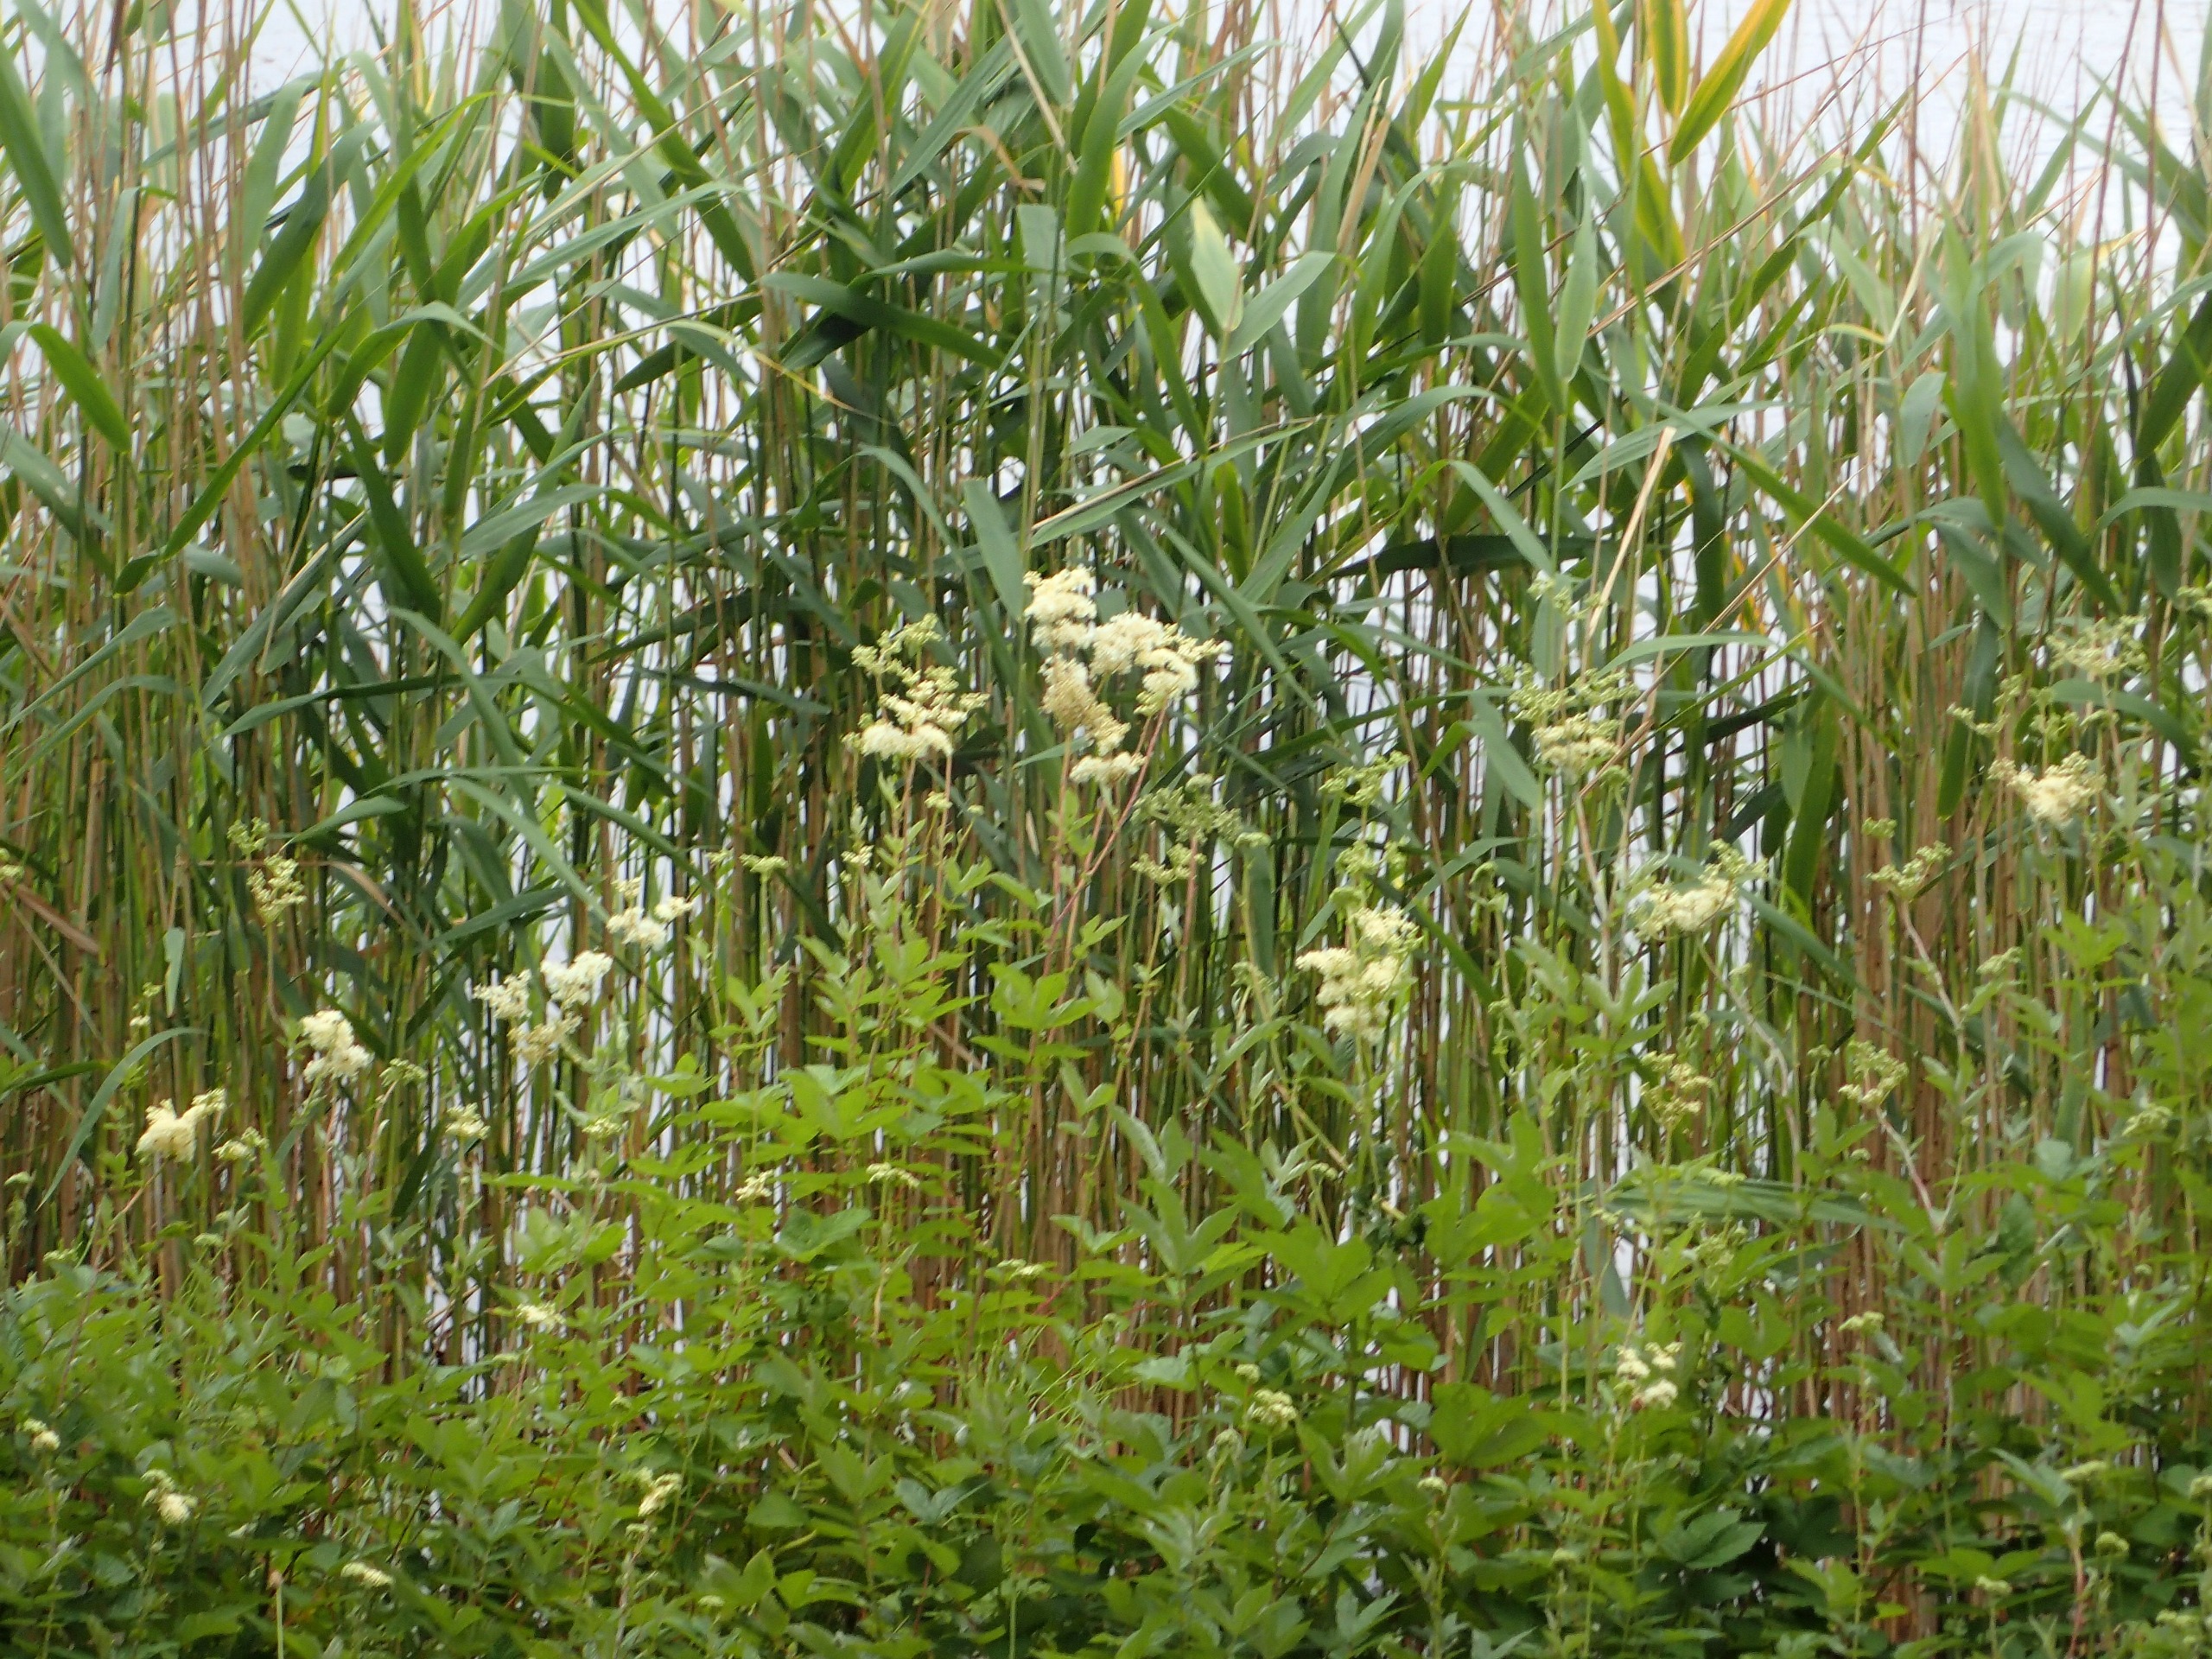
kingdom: Plantae
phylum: Tracheophyta
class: Magnoliopsida
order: Rosales
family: Rosaceae
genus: Filipendula
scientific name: Filipendula ulmaria
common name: Almindelig mjødurt
